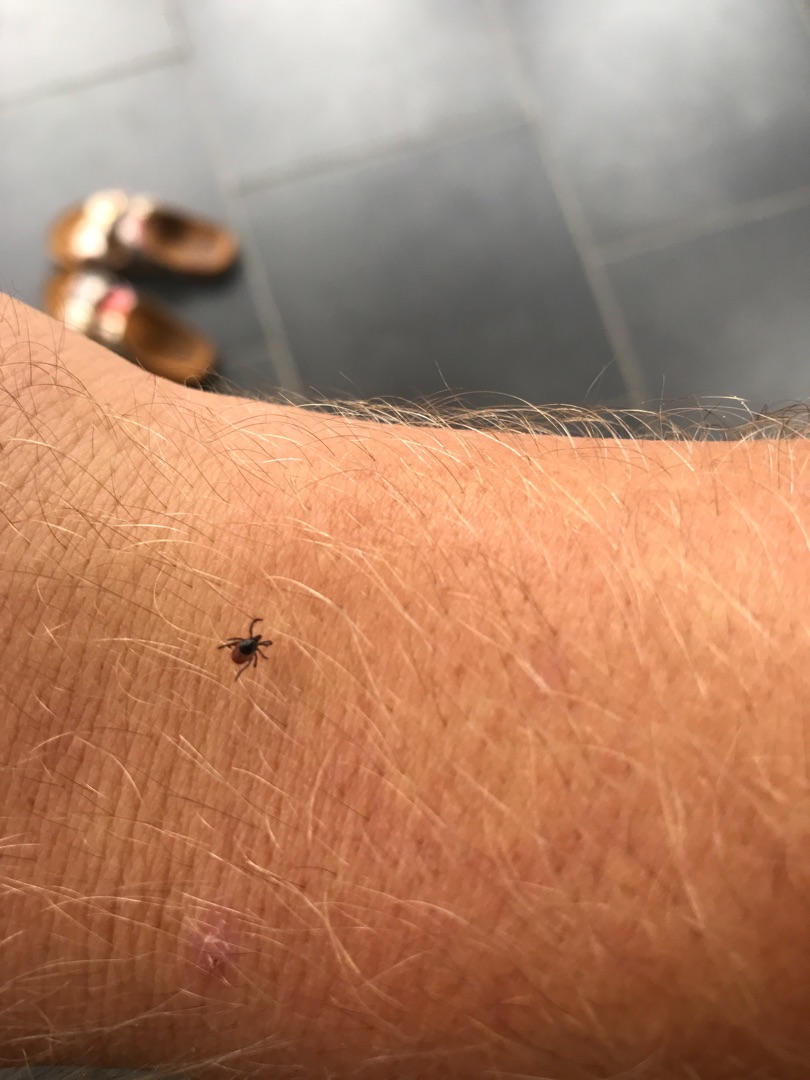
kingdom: Animalia
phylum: Arthropoda
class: Arachnida
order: Ixodida
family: Ixodidae
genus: Ixodes
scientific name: Ixodes ricinus
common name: Skovflåt
